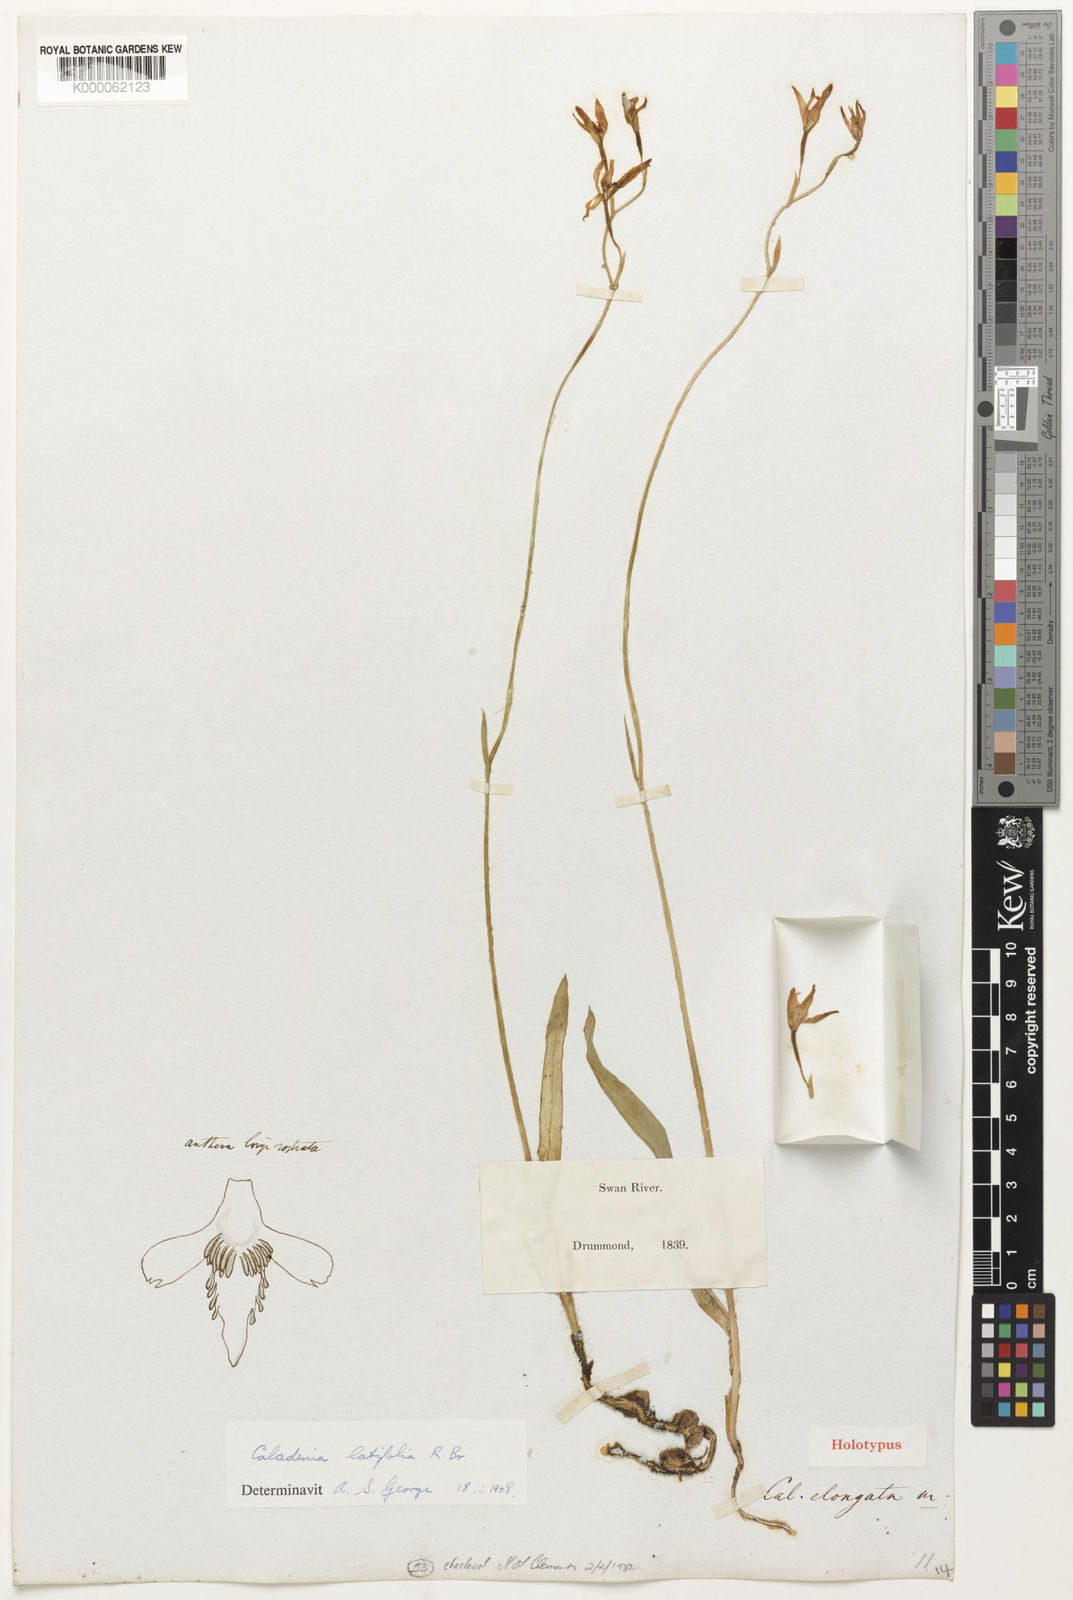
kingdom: Plantae
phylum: Tracheophyta
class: Liliopsida
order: Asparagales
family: Orchidaceae
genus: Caladenia
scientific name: Caladenia latifolia
